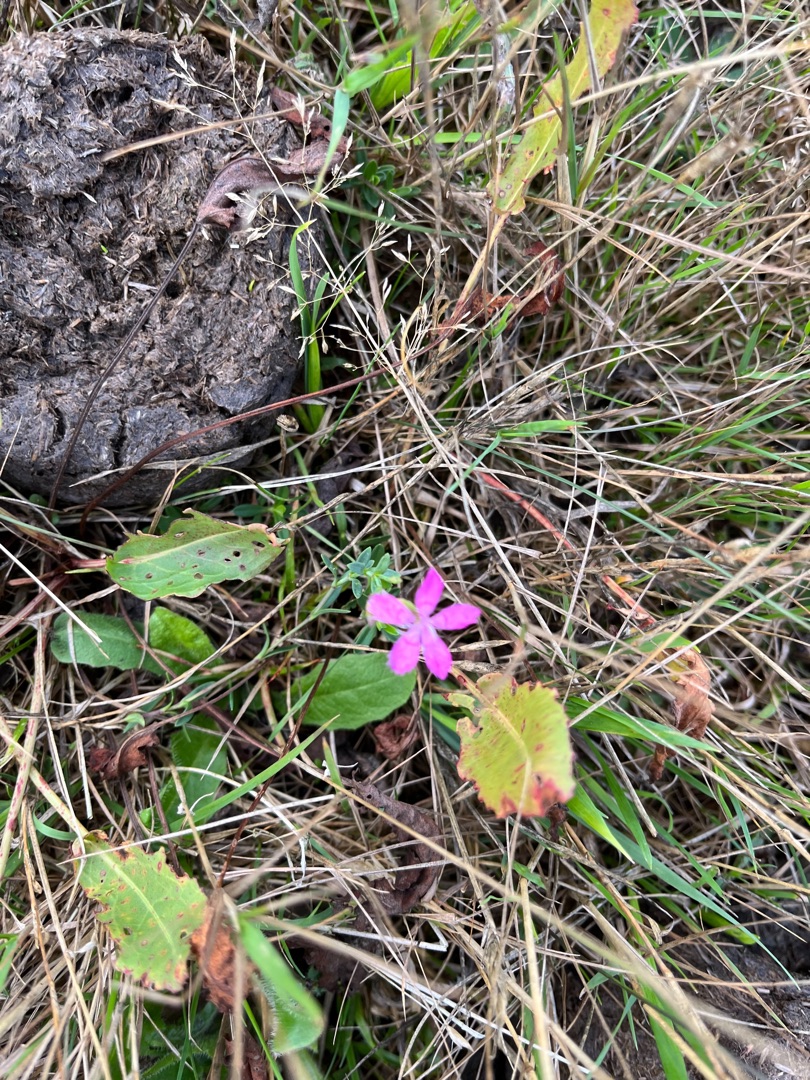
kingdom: Plantae
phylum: Tracheophyta
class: Magnoliopsida
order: Caryophyllales
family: Caryophyllaceae
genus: Dianthus
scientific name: Dianthus deltoides
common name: Bakke-nellike
